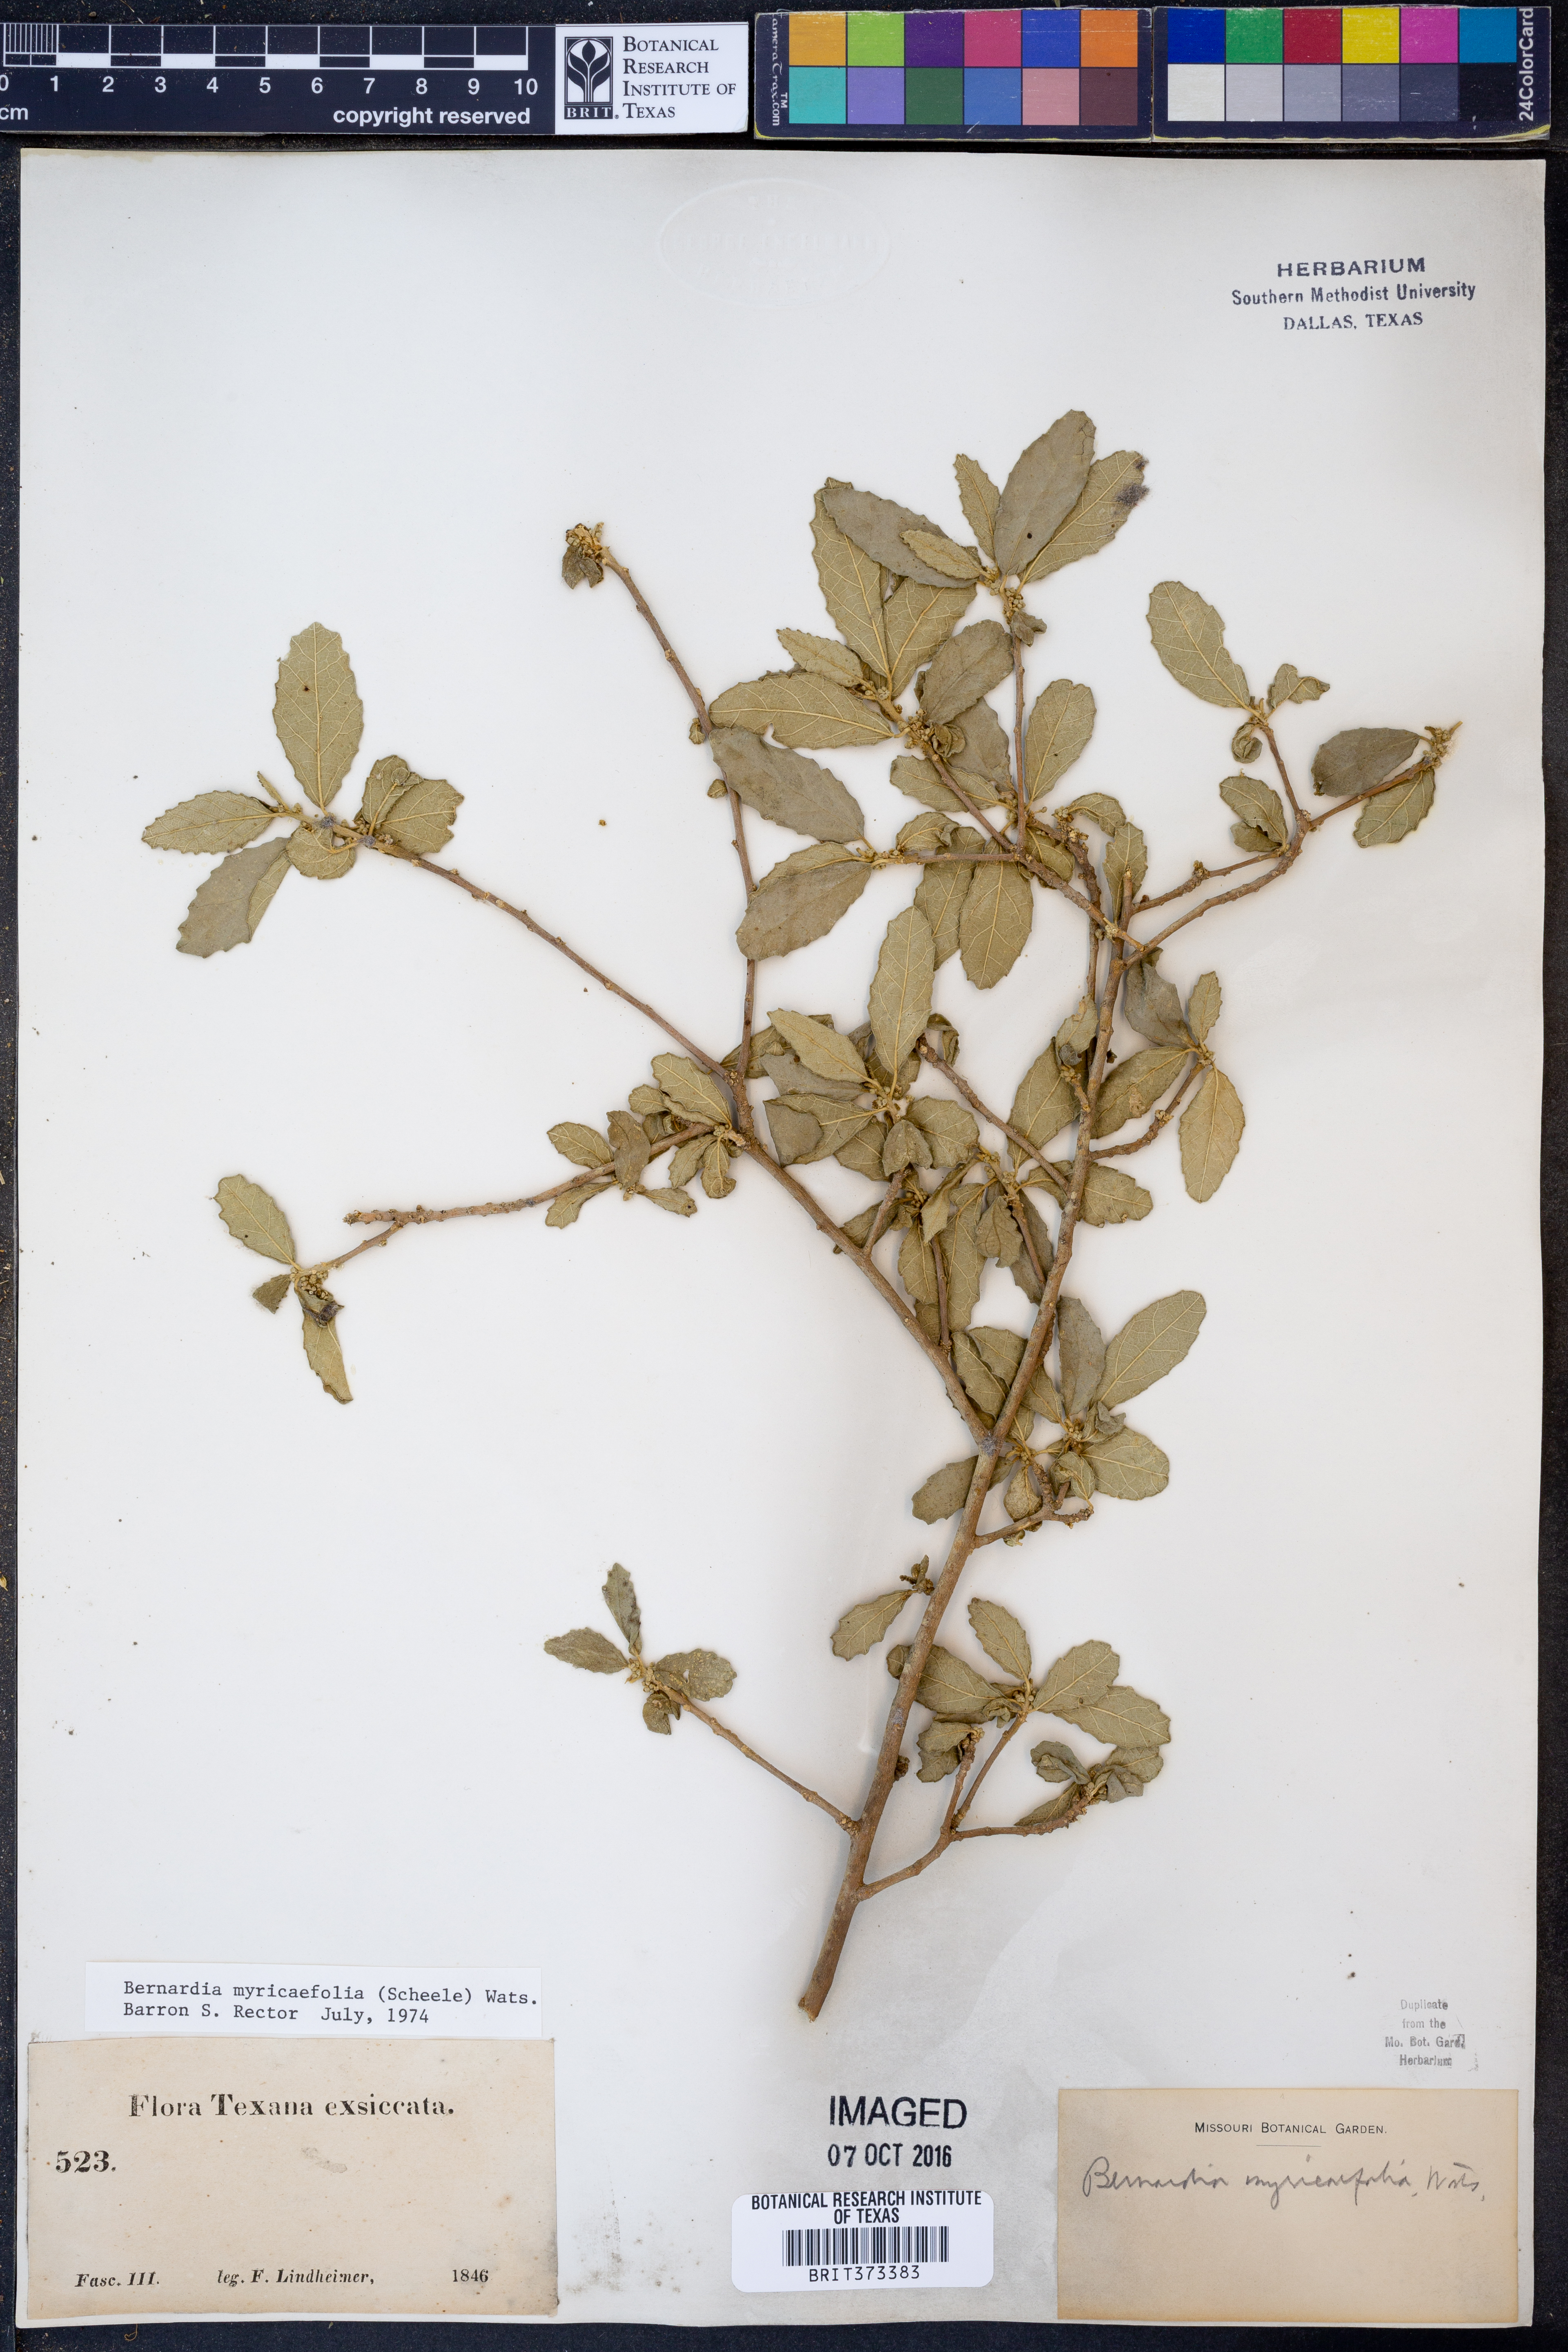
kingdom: Plantae
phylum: Tracheophyta
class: Magnoliopsida
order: Malpighiales
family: Euphorbiaceae
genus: Bernardia
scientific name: Bernardia myricifolia
